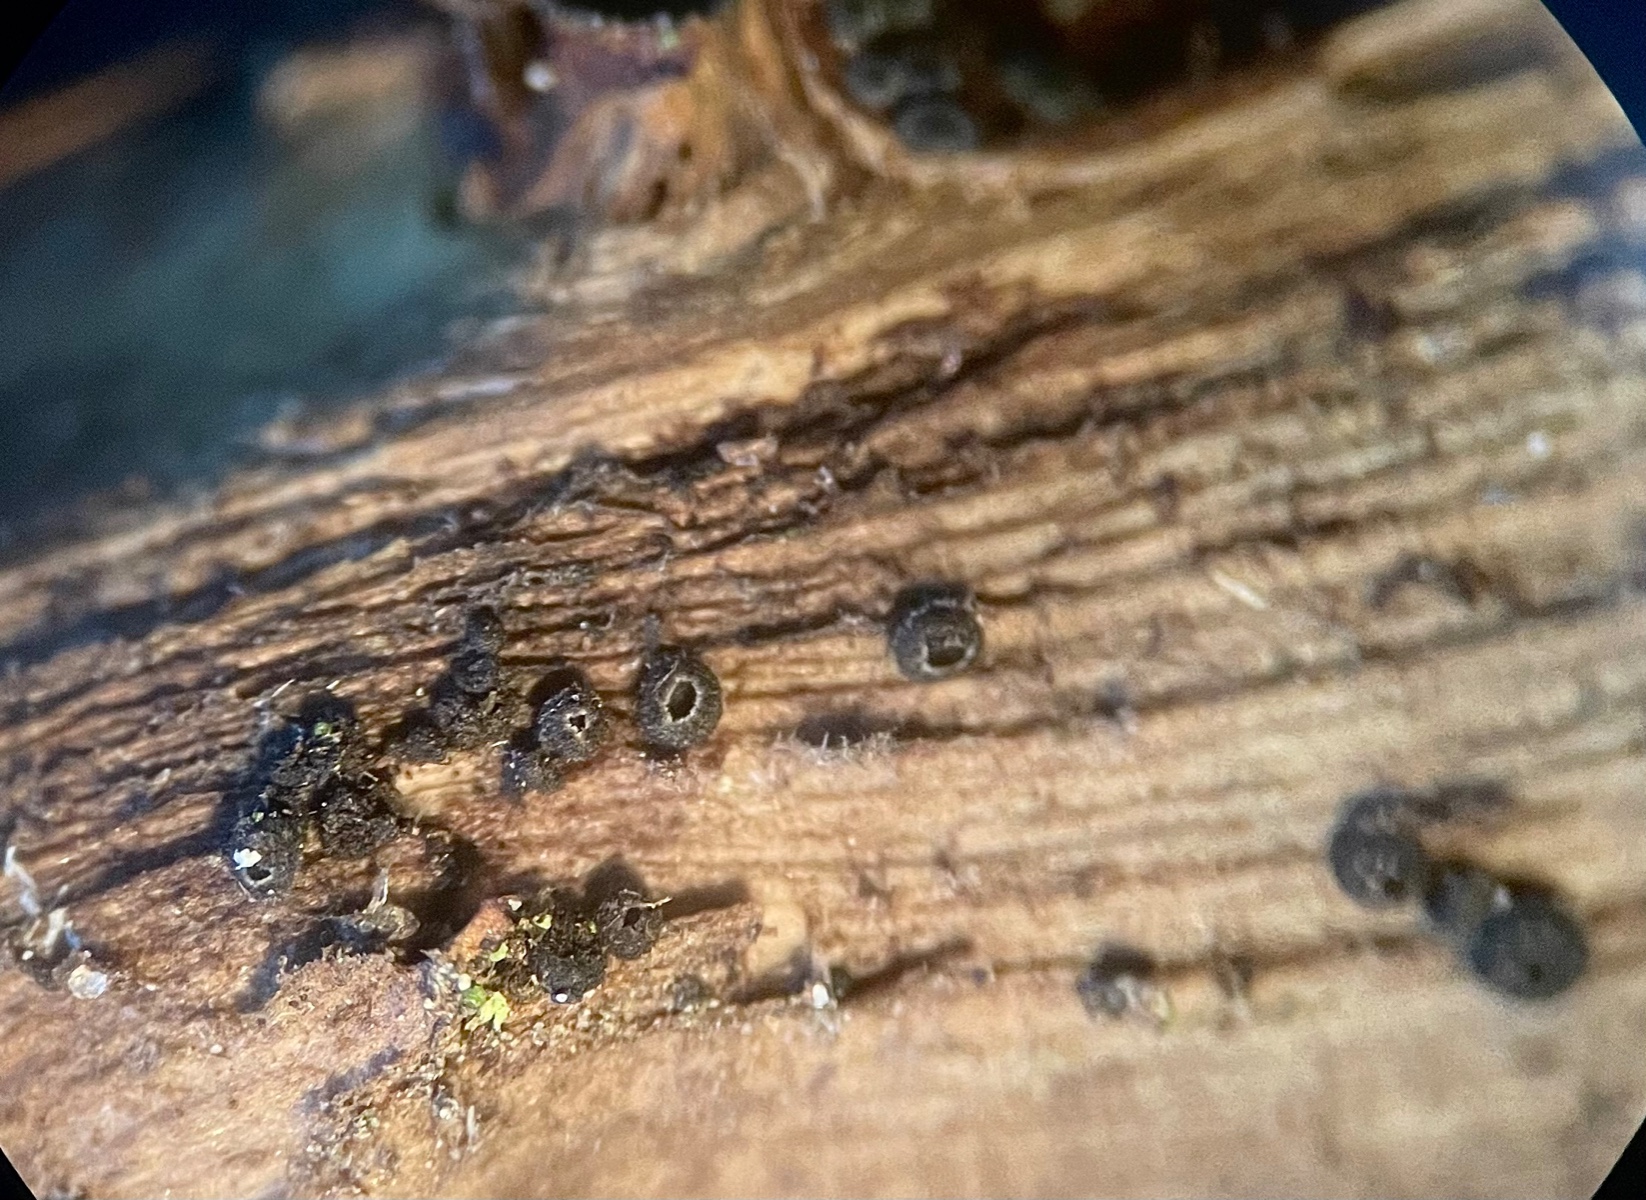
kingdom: Fungi
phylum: Ascomycota
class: Leotiomycetes
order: Helotiales
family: Ploettnerulaceae
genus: Pyrenopeziza
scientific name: Pyrenopeziza rubi
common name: hindbær-kerneskive
